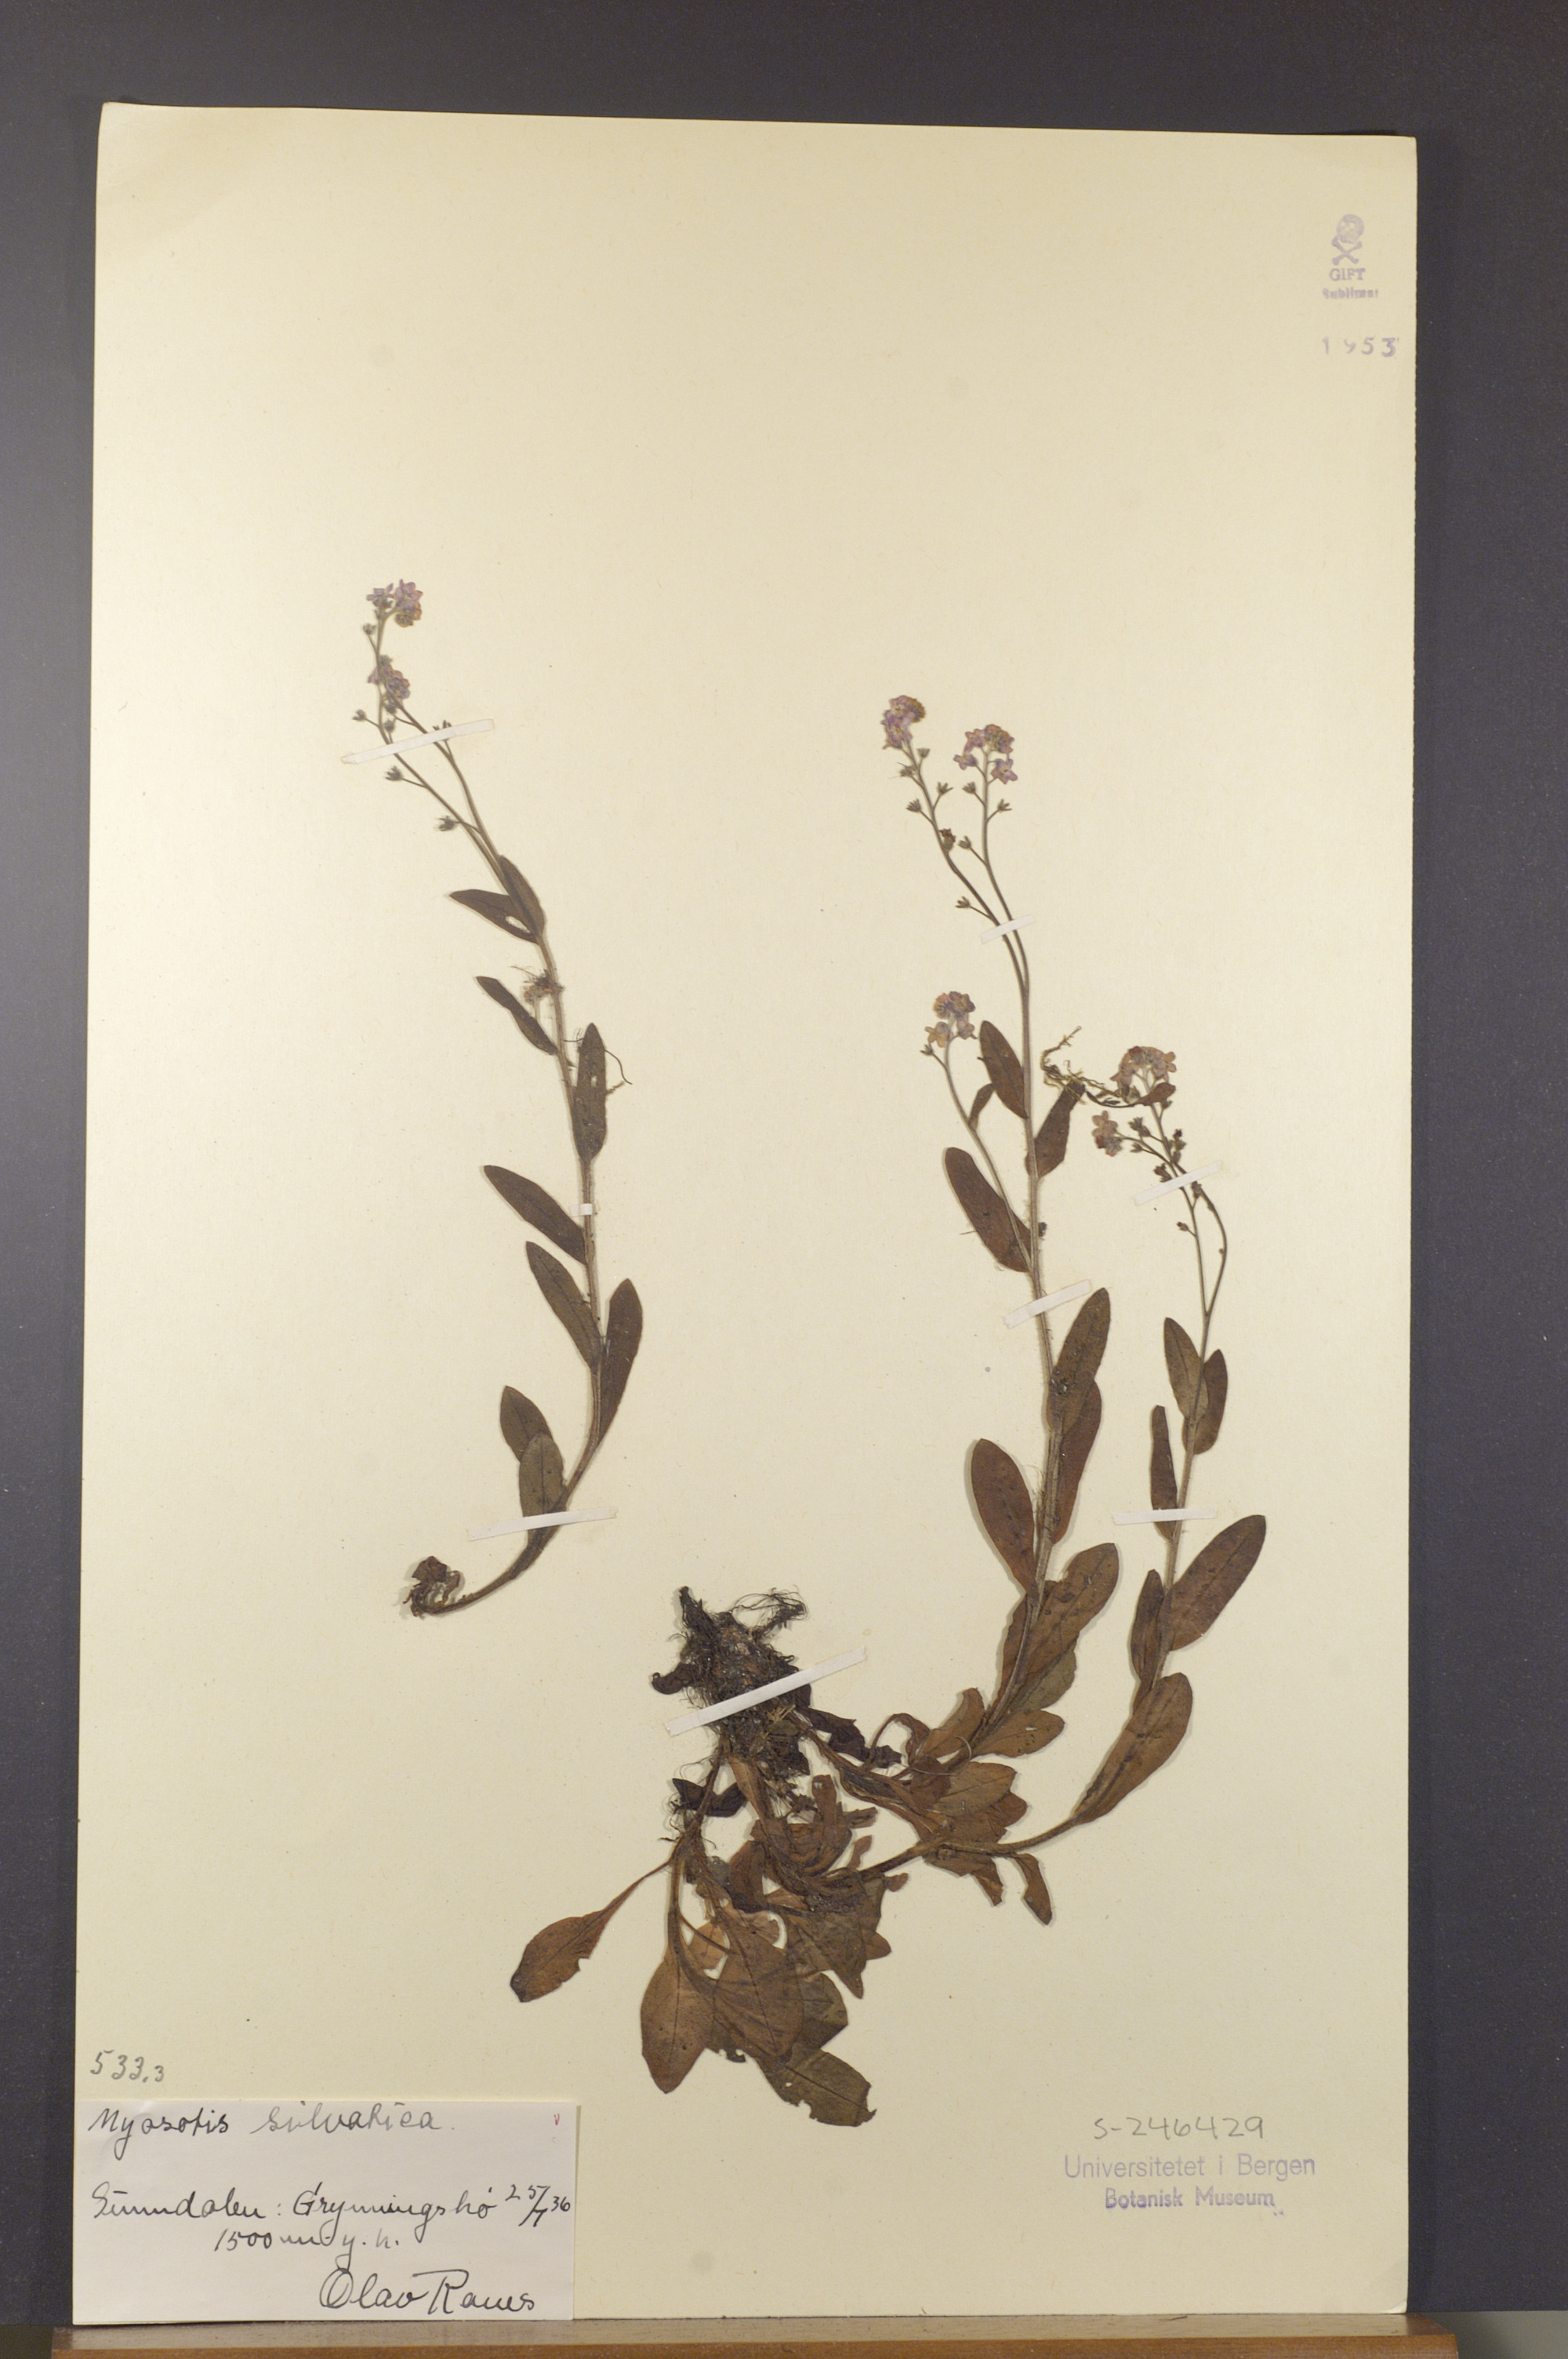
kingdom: Plantae
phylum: Tracheophyta
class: Magnoliopsida
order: Boraginales
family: Boraginaceae
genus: Myosotis
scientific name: Myosotis decumbens
